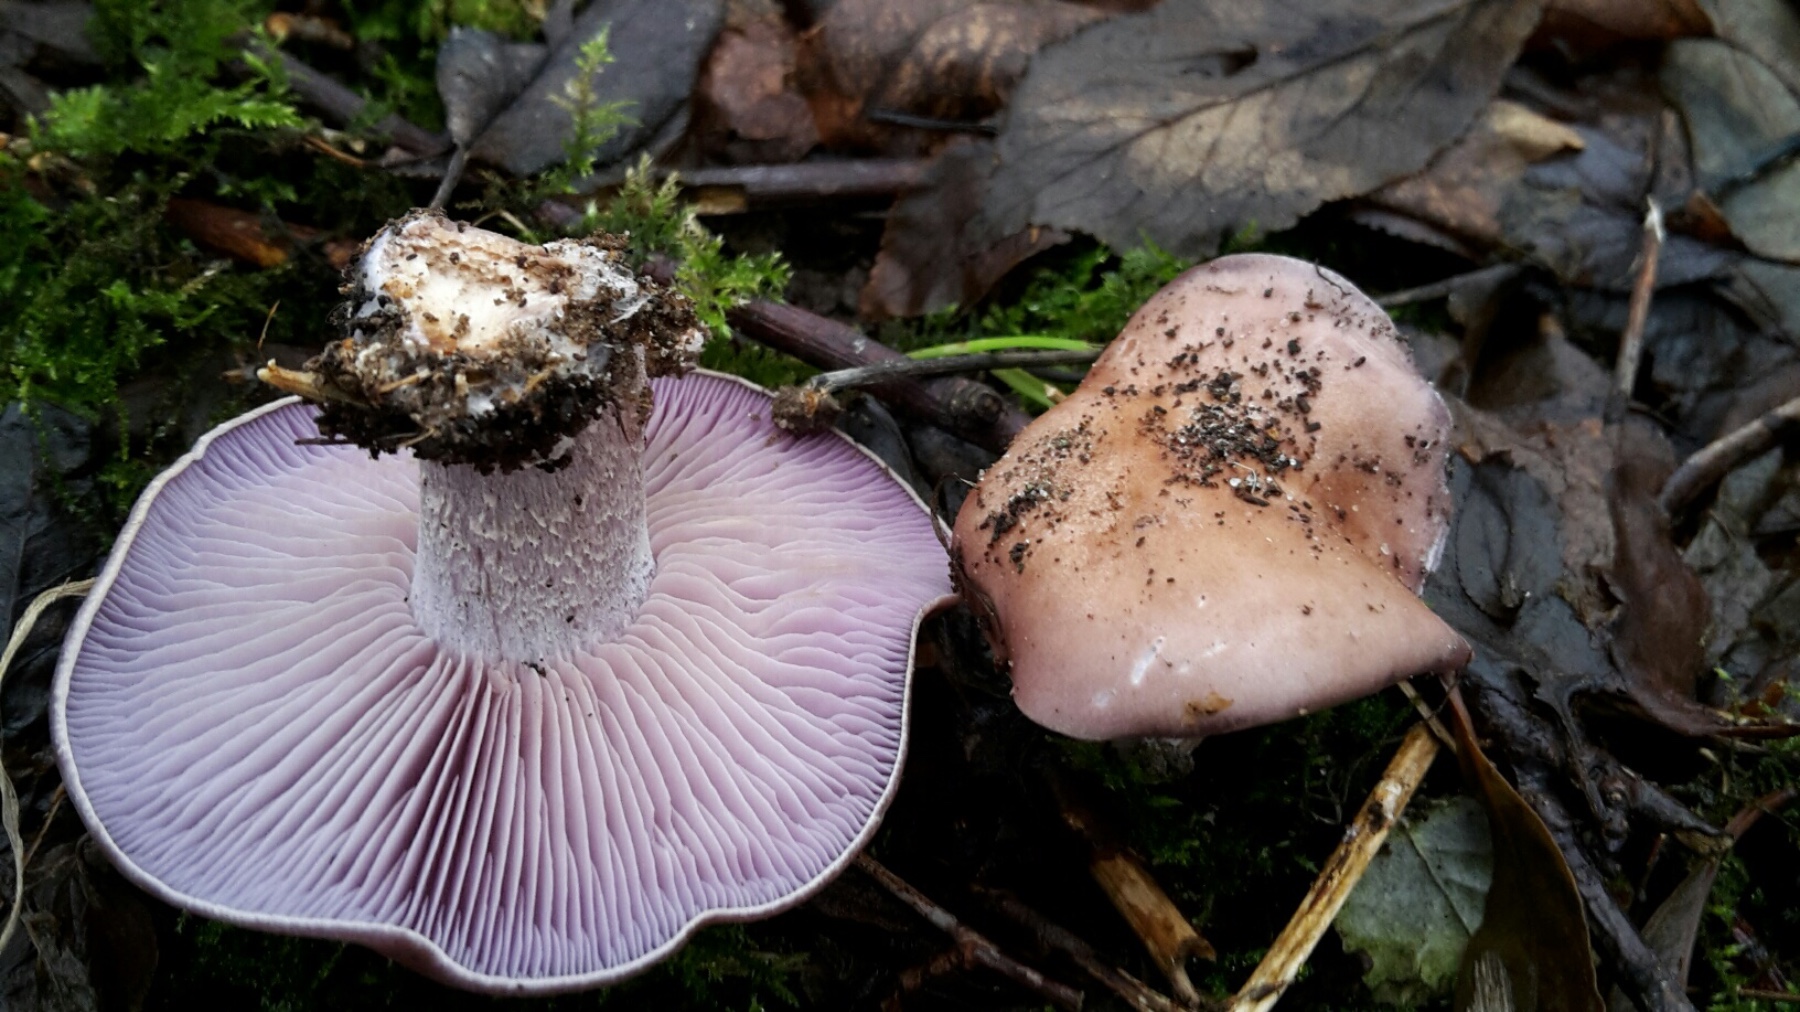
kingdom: Fungi
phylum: Basidiomycota
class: Agaricomycetes
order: Agaricales
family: Tricholomataceae
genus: Lepista
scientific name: Lepista nuda
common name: violet hekseringshat
